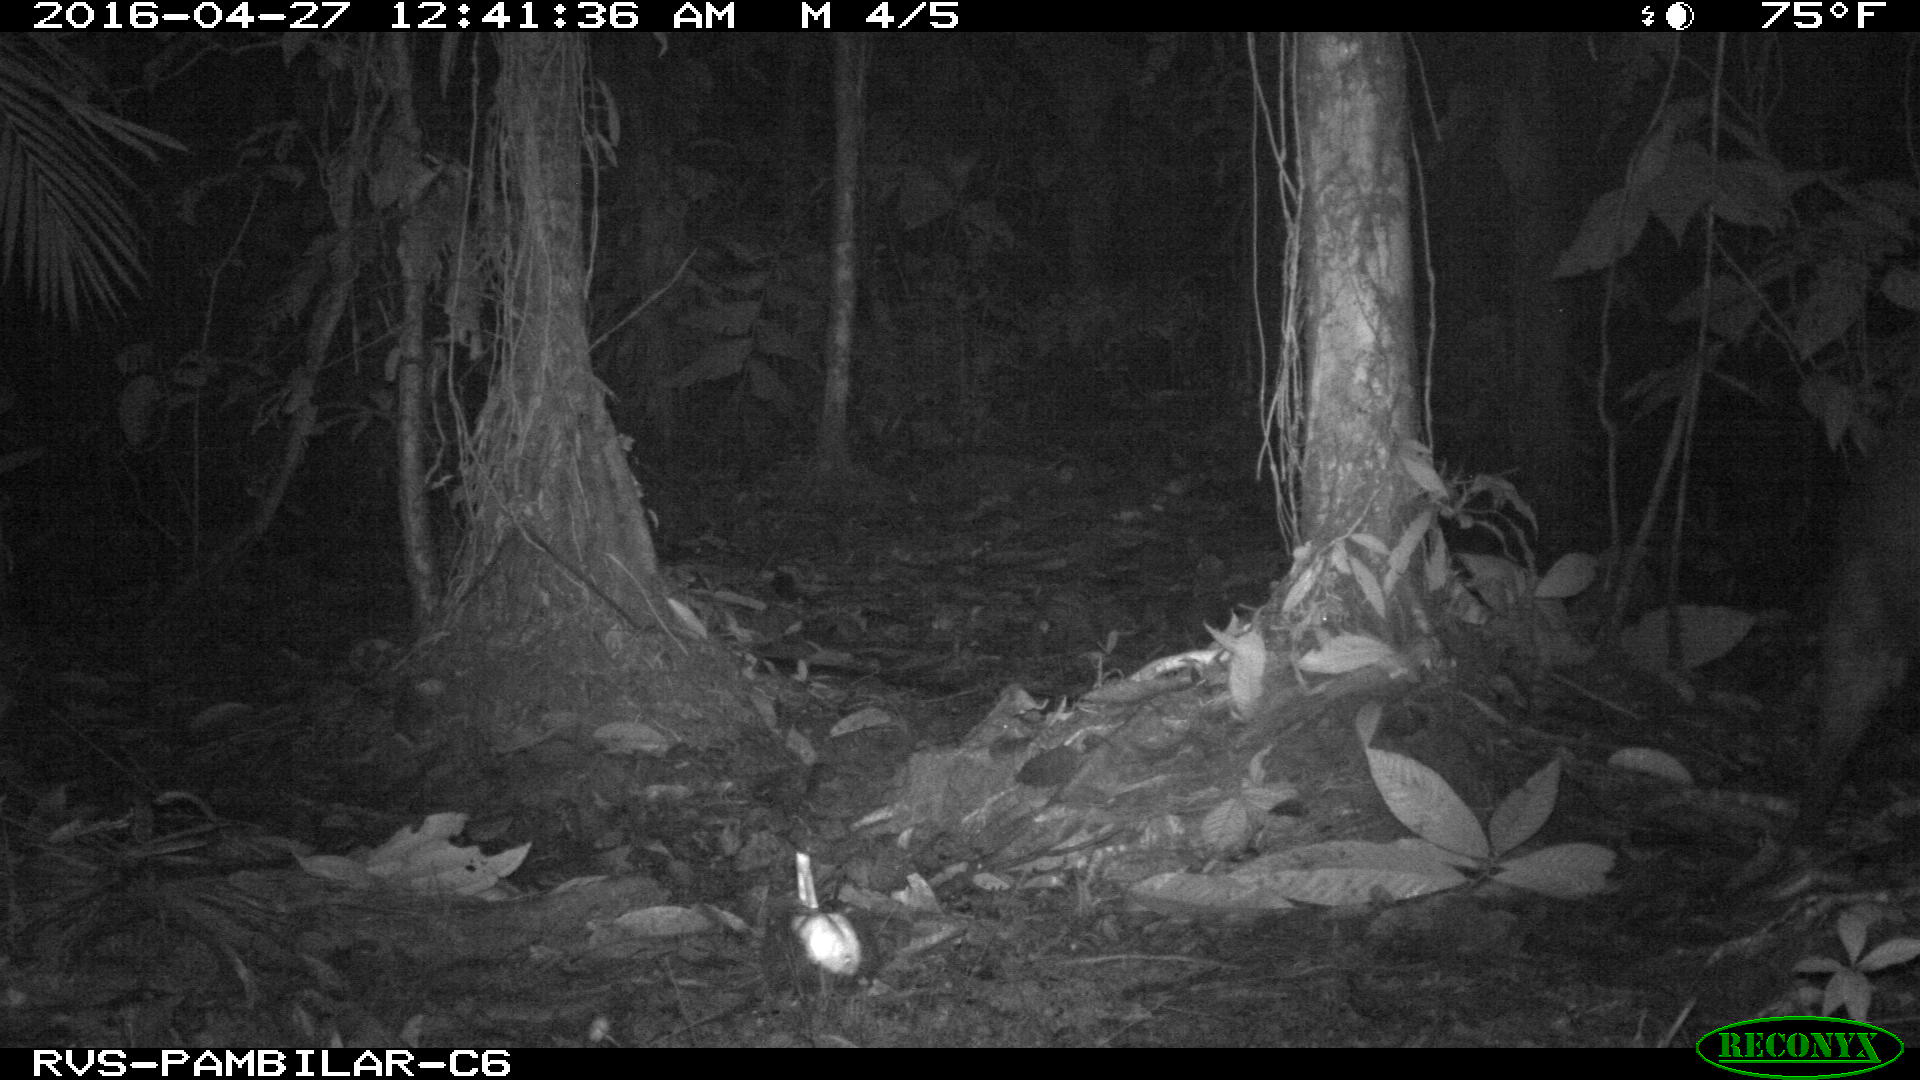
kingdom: Animalia
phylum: Chordata
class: Mammalia
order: Carnivora
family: Procyonidae
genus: Procyon
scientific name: Procyon cancrivorus
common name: Crab-eating raccoon
